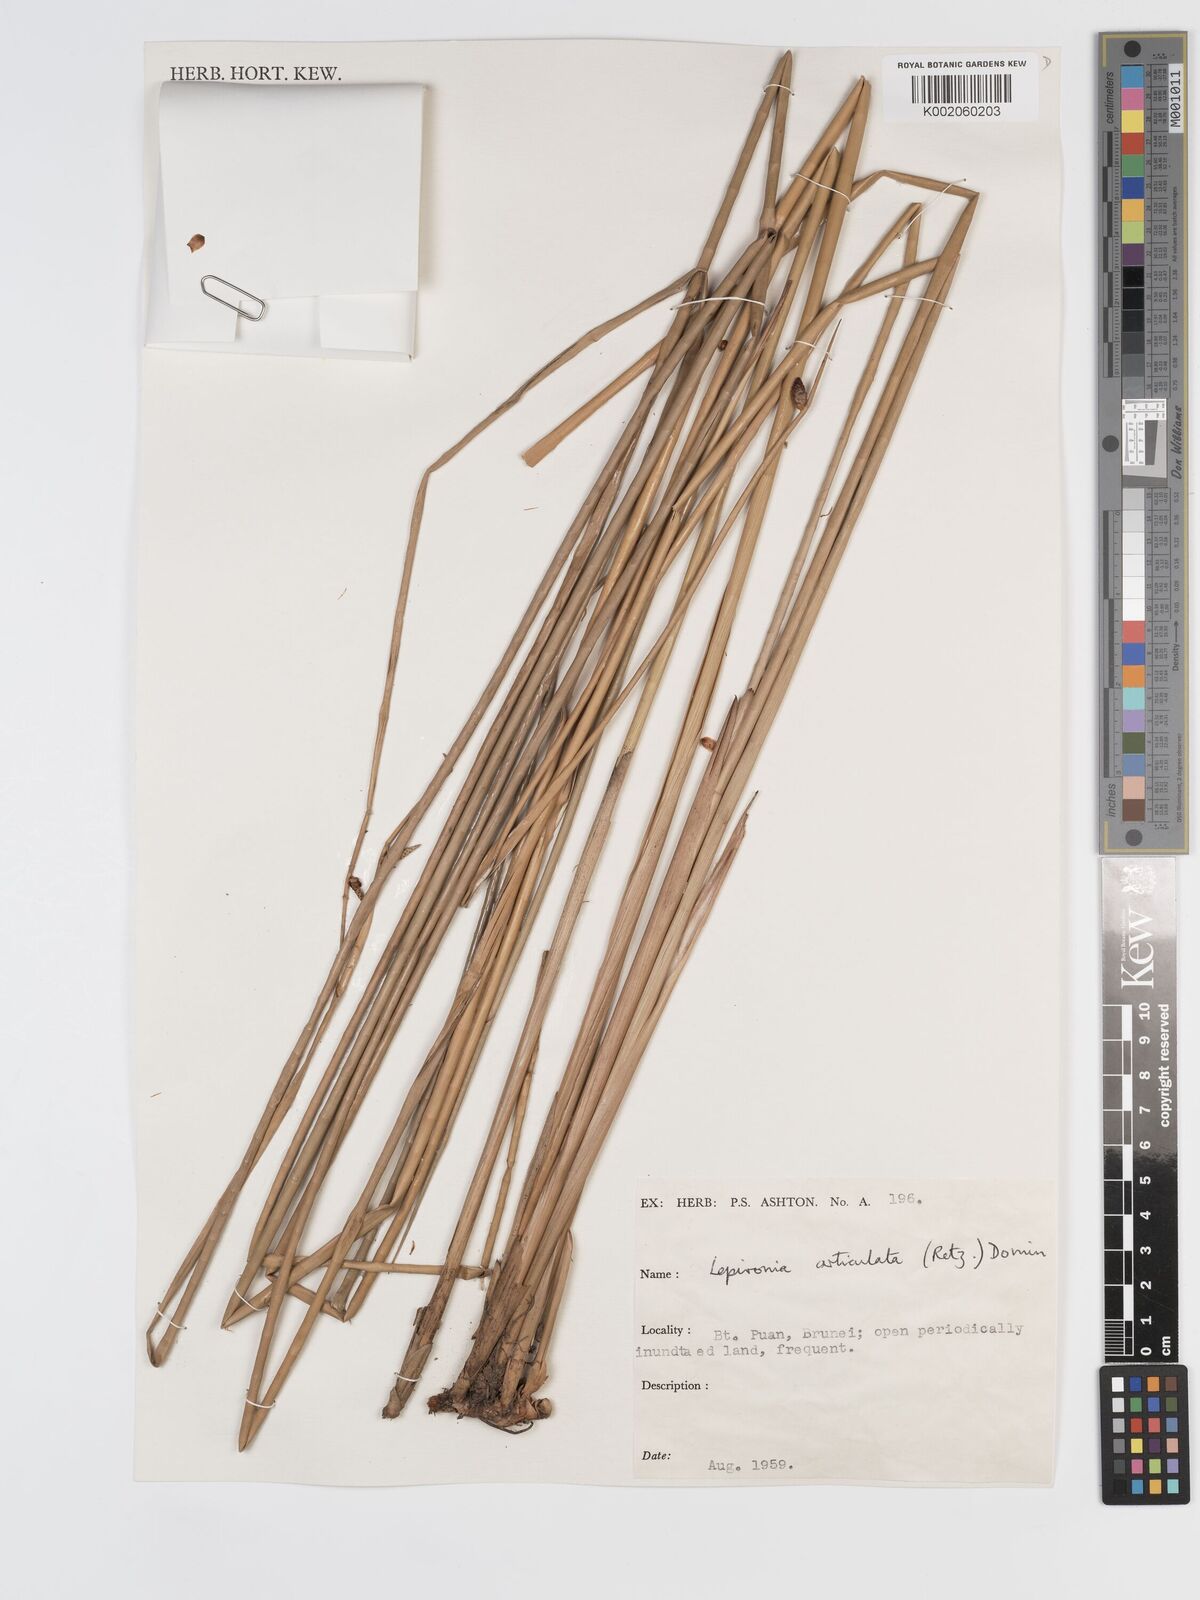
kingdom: Plantae
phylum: Tracheophyta
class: Liliopsida
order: Poales
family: Cyperaceae
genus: Lepironia
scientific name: Lepironia articulata
